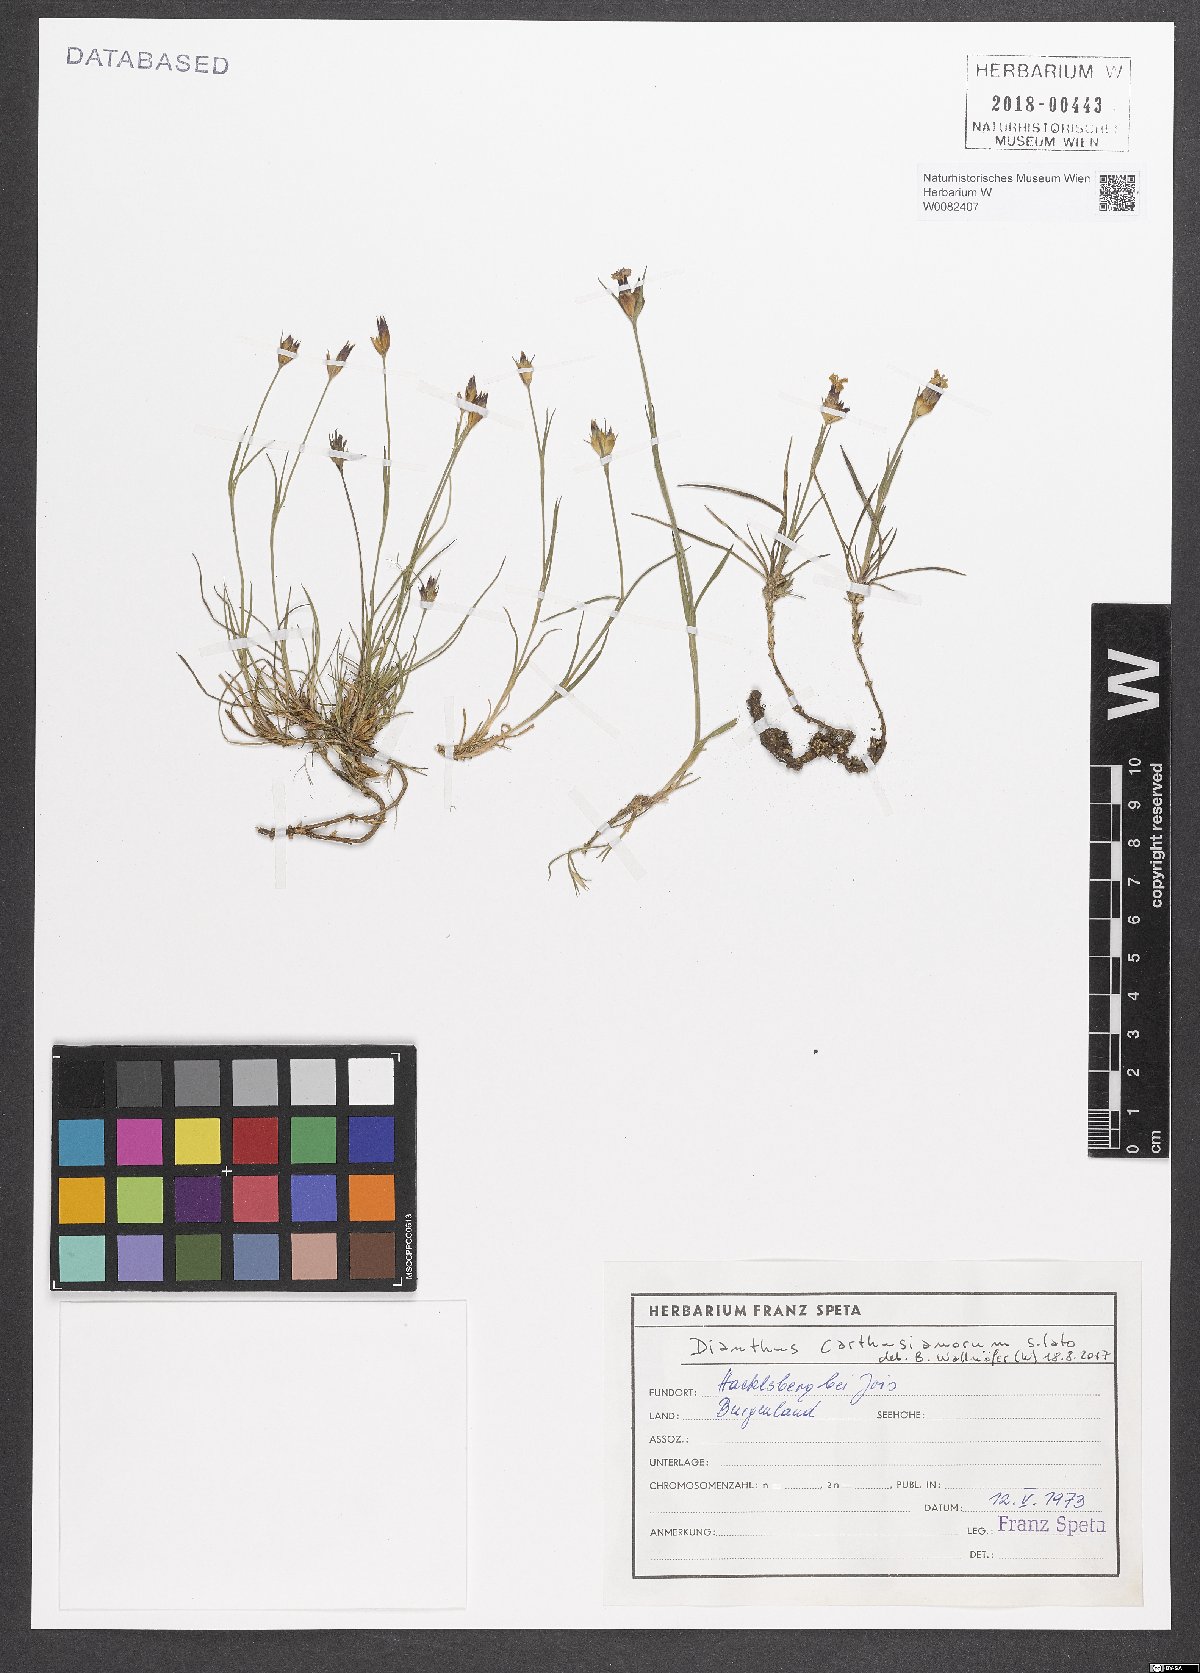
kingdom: Plantae
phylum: Tracheophyta
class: Magnoliopsida
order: Caryophyllales
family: Caryophyllaceae
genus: Dianthus
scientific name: Dianthus carthusianorum
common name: Carthusian pink
